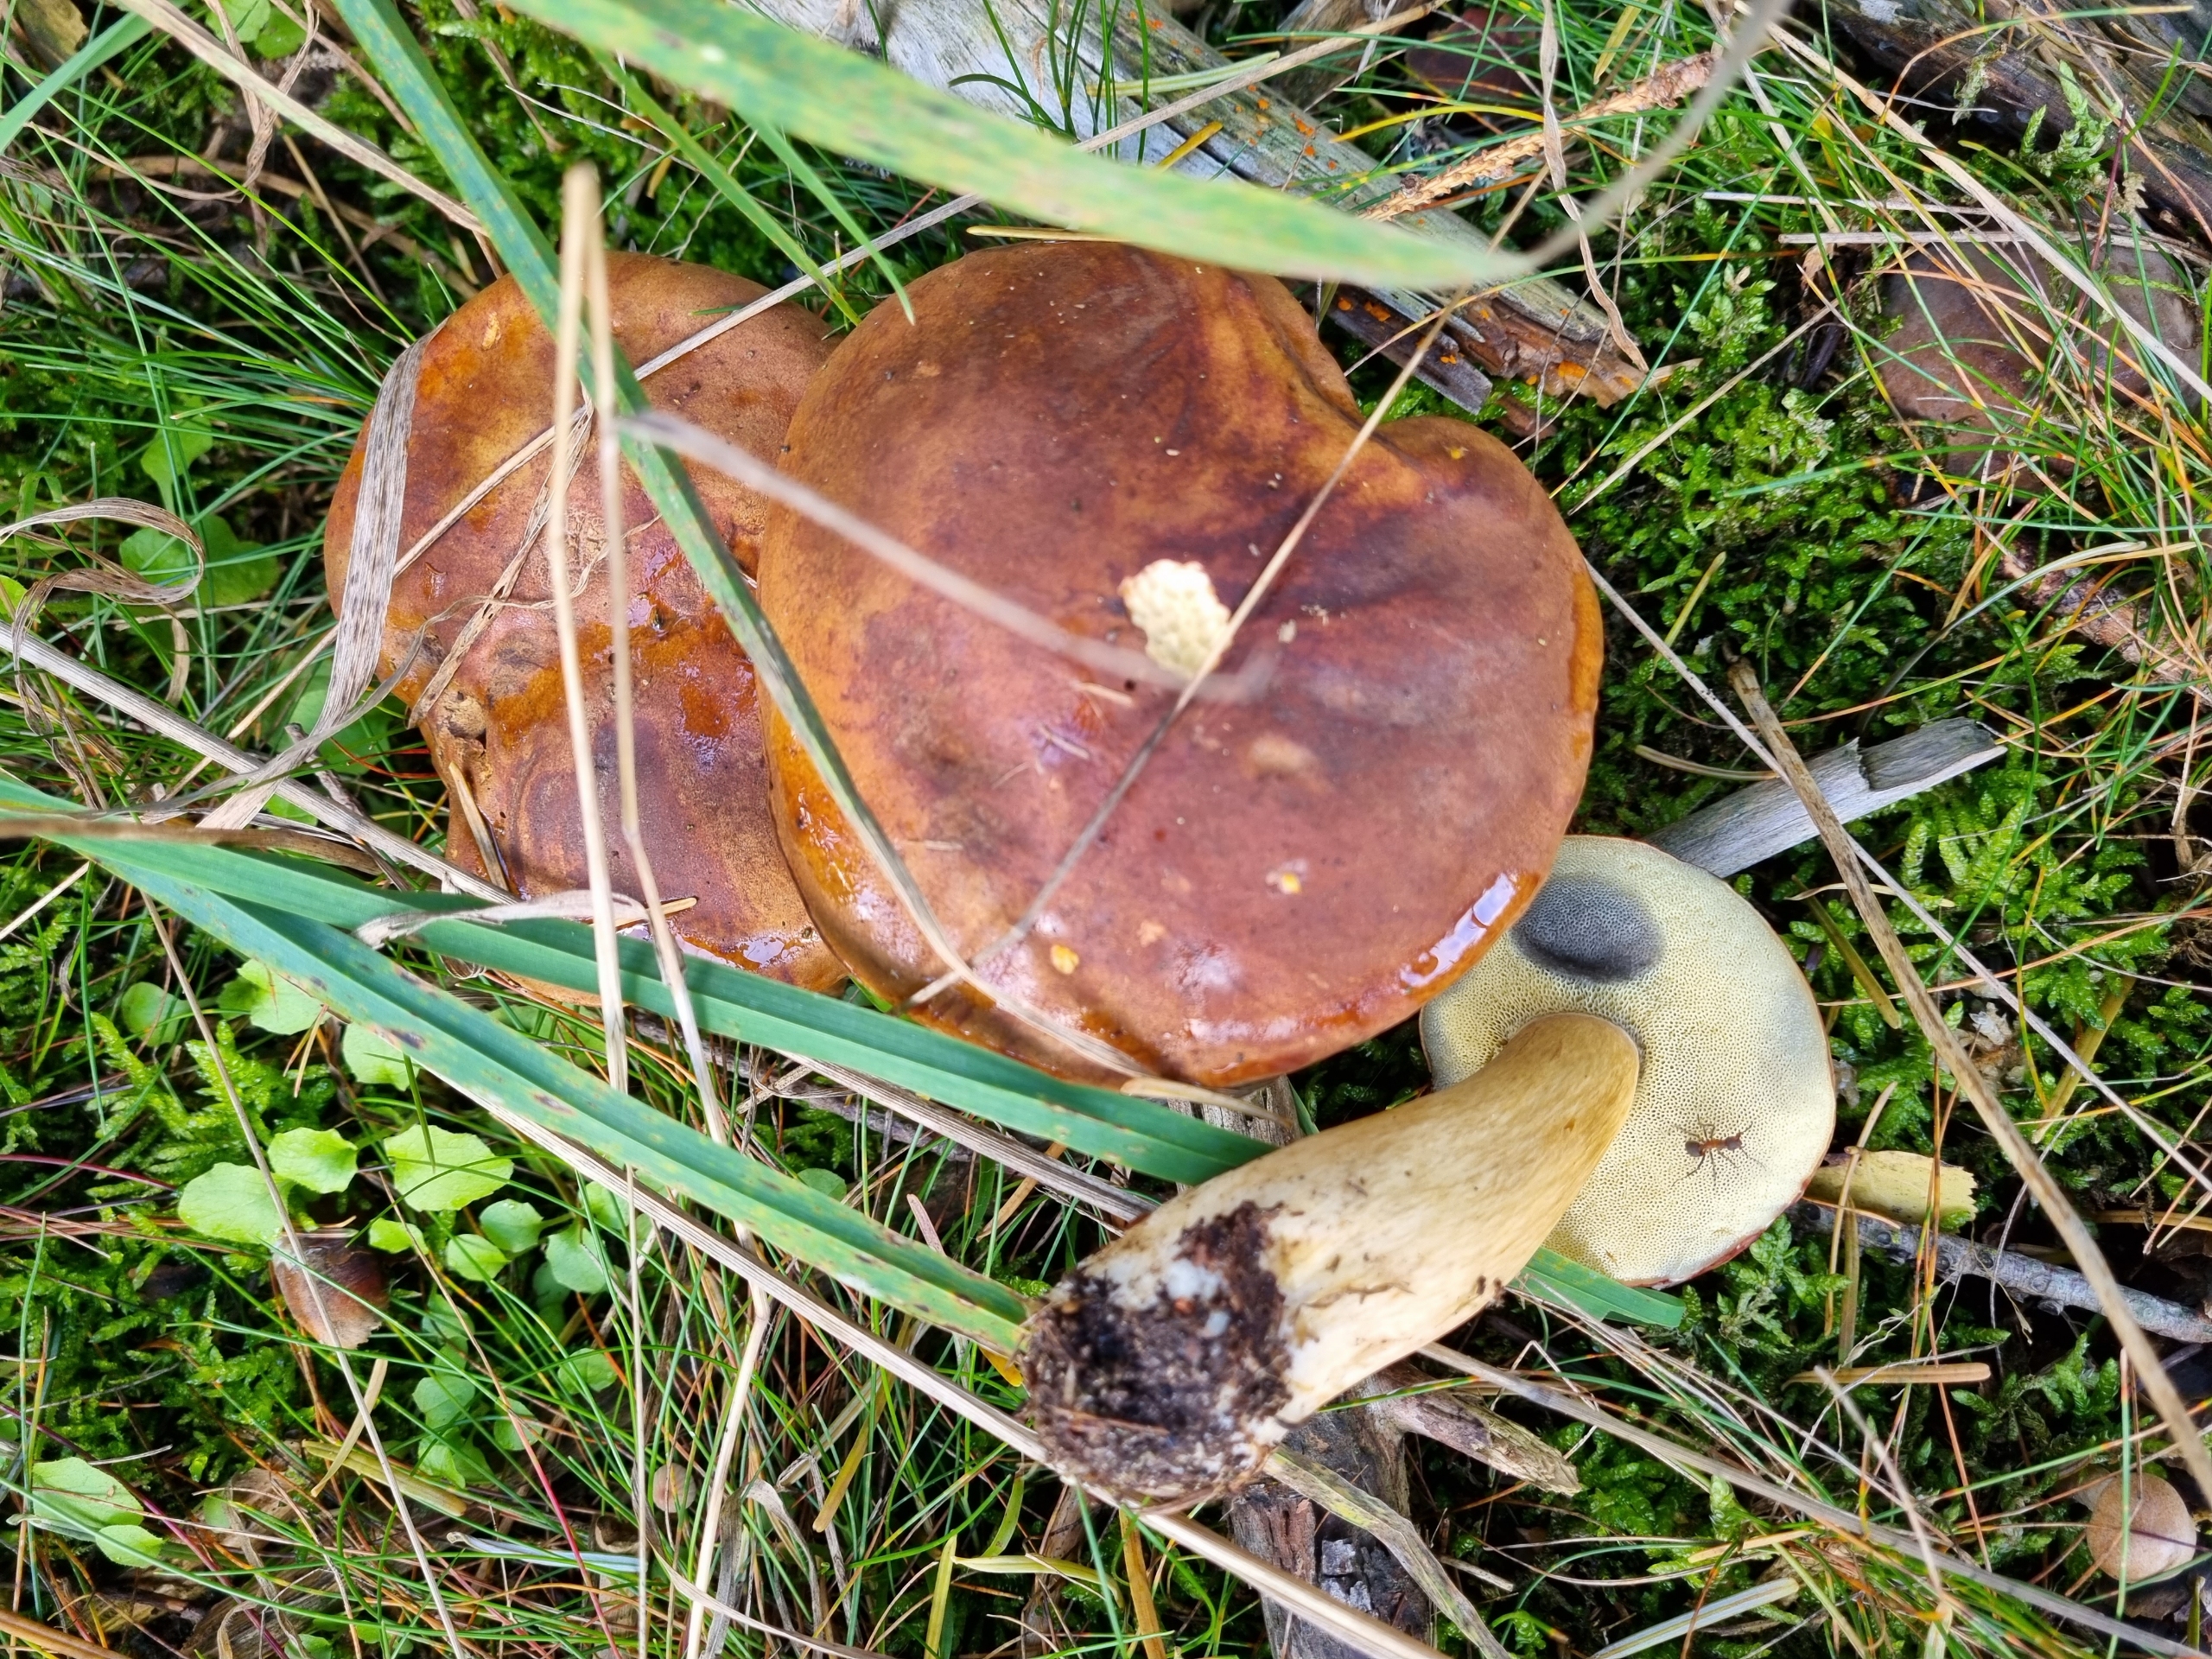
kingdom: Fungi
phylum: Basidiomycota
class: Agaricomycetes
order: Boletales
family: Boletaceae
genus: Imleria
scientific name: Imleria badia
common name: Brunstokket rørhat
